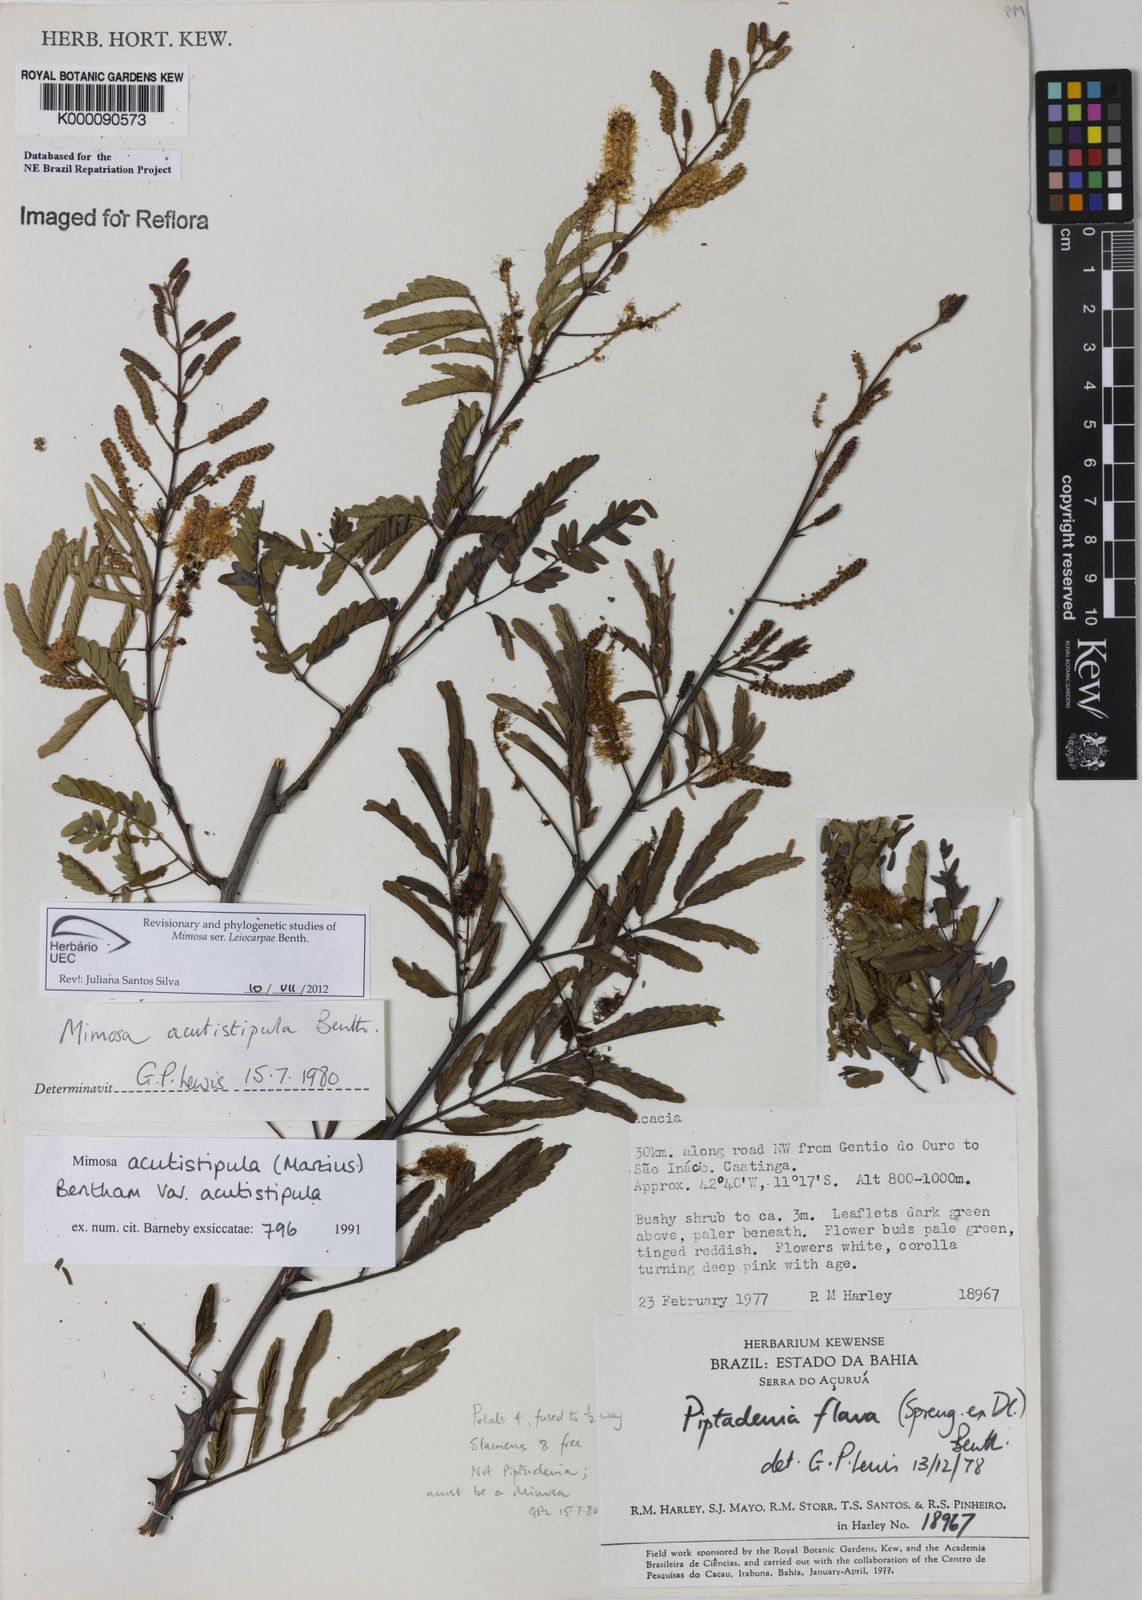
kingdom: Plantae
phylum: Tracheophyta
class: Magnoliopsida
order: Fabales
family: Fabaceae
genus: Mimosa
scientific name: Mimosa acutistipula
